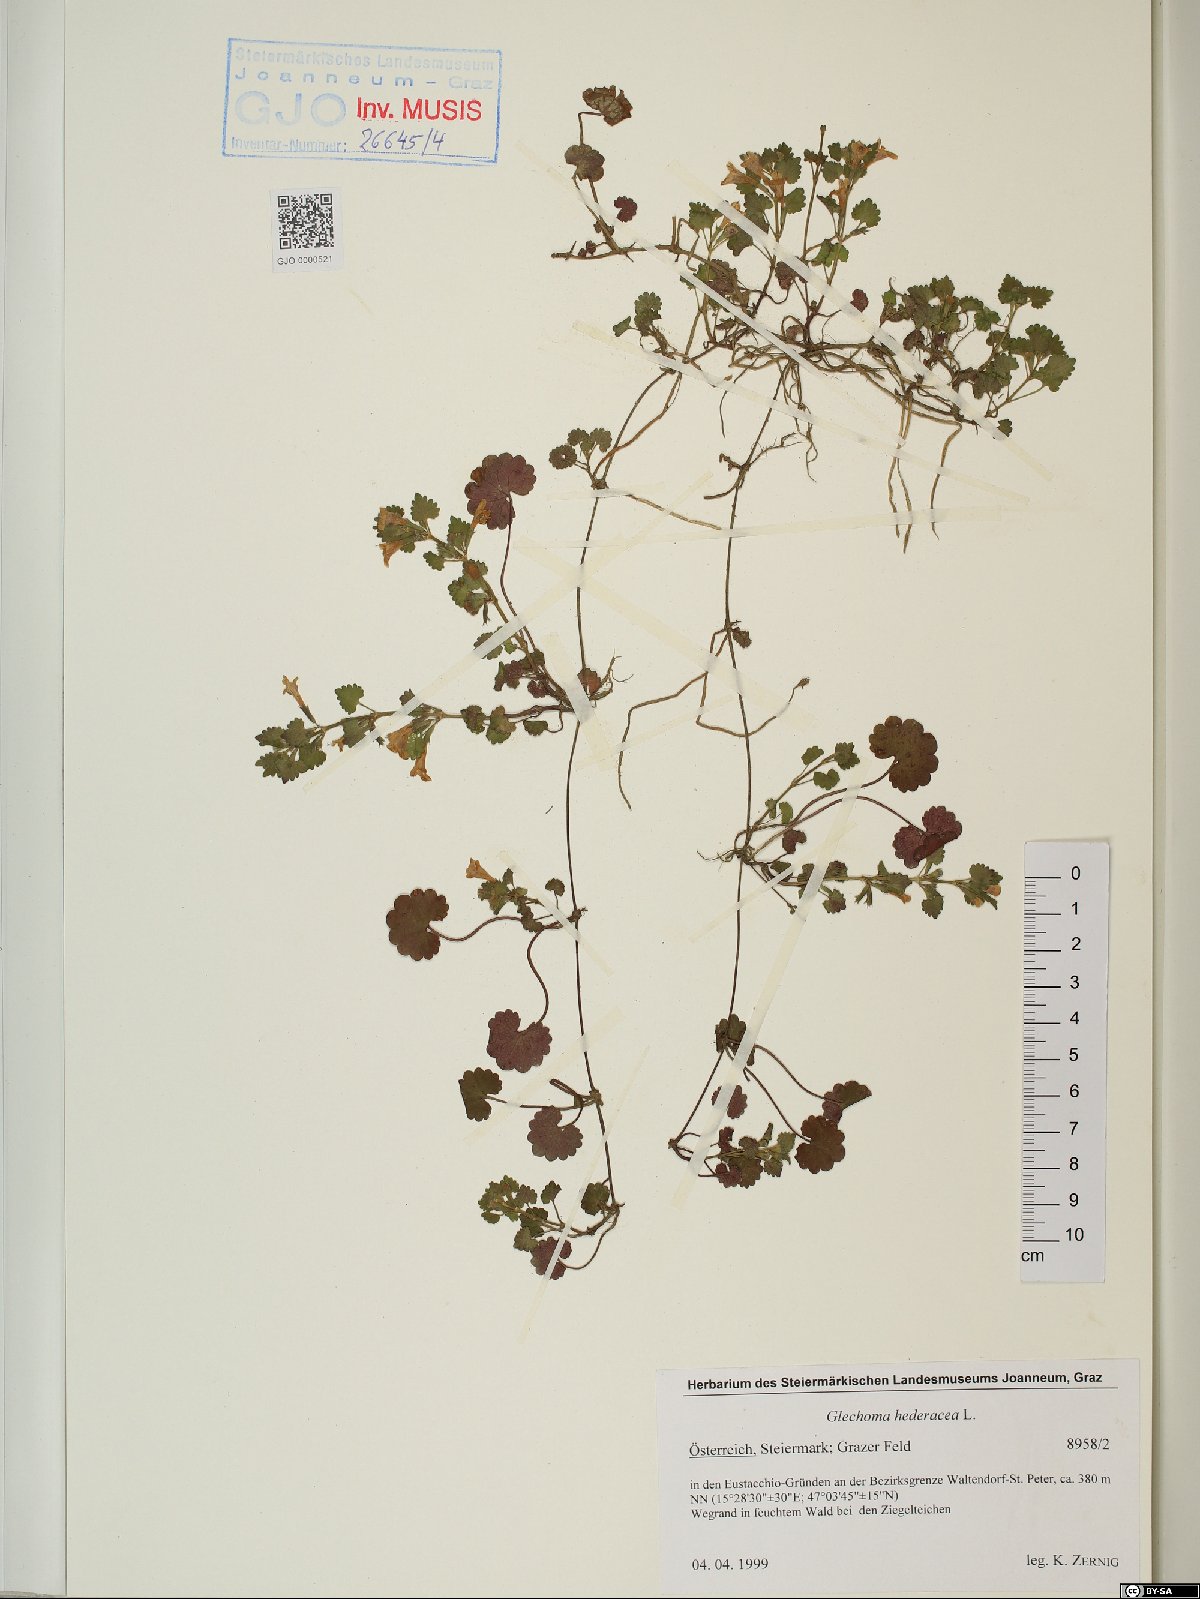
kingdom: Plantae
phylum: Tracheophyta
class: Magnoliopsida
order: Lamiales
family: Lamiaceae
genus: Glechoma
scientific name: Glechoma hederacea
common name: Ground ivy
